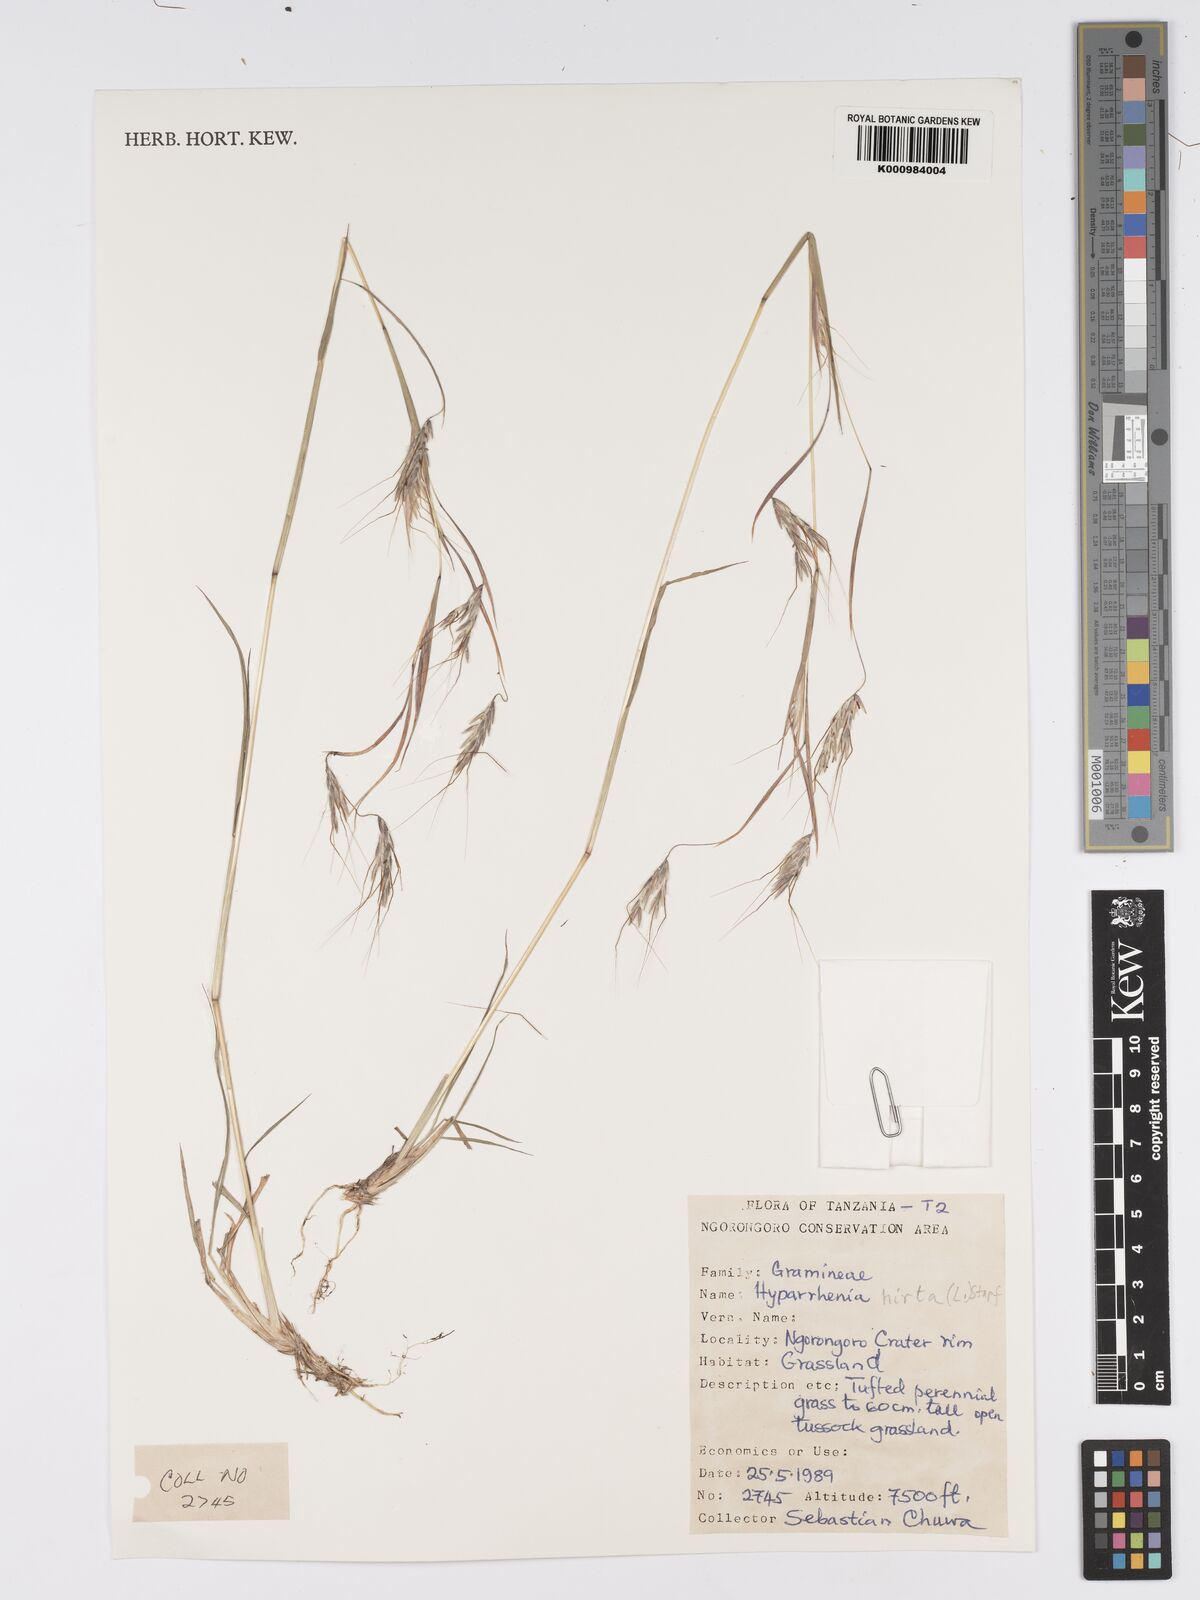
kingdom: Plantae
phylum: Tracheophyta
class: Liliopsida
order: Poales
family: Poaceae
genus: Hyparrhenia
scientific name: Hyparrhenia hirta
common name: Thatching grass
